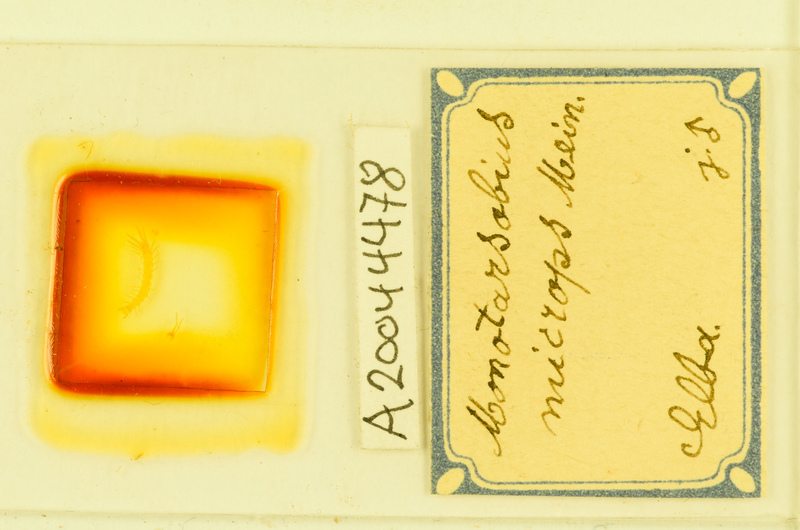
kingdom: Animalia
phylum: Arthropoda
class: Chilopoda
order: Lithobiomorpha
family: Lithobiidae
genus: Monotarsobius
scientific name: Monotarsobius microps
